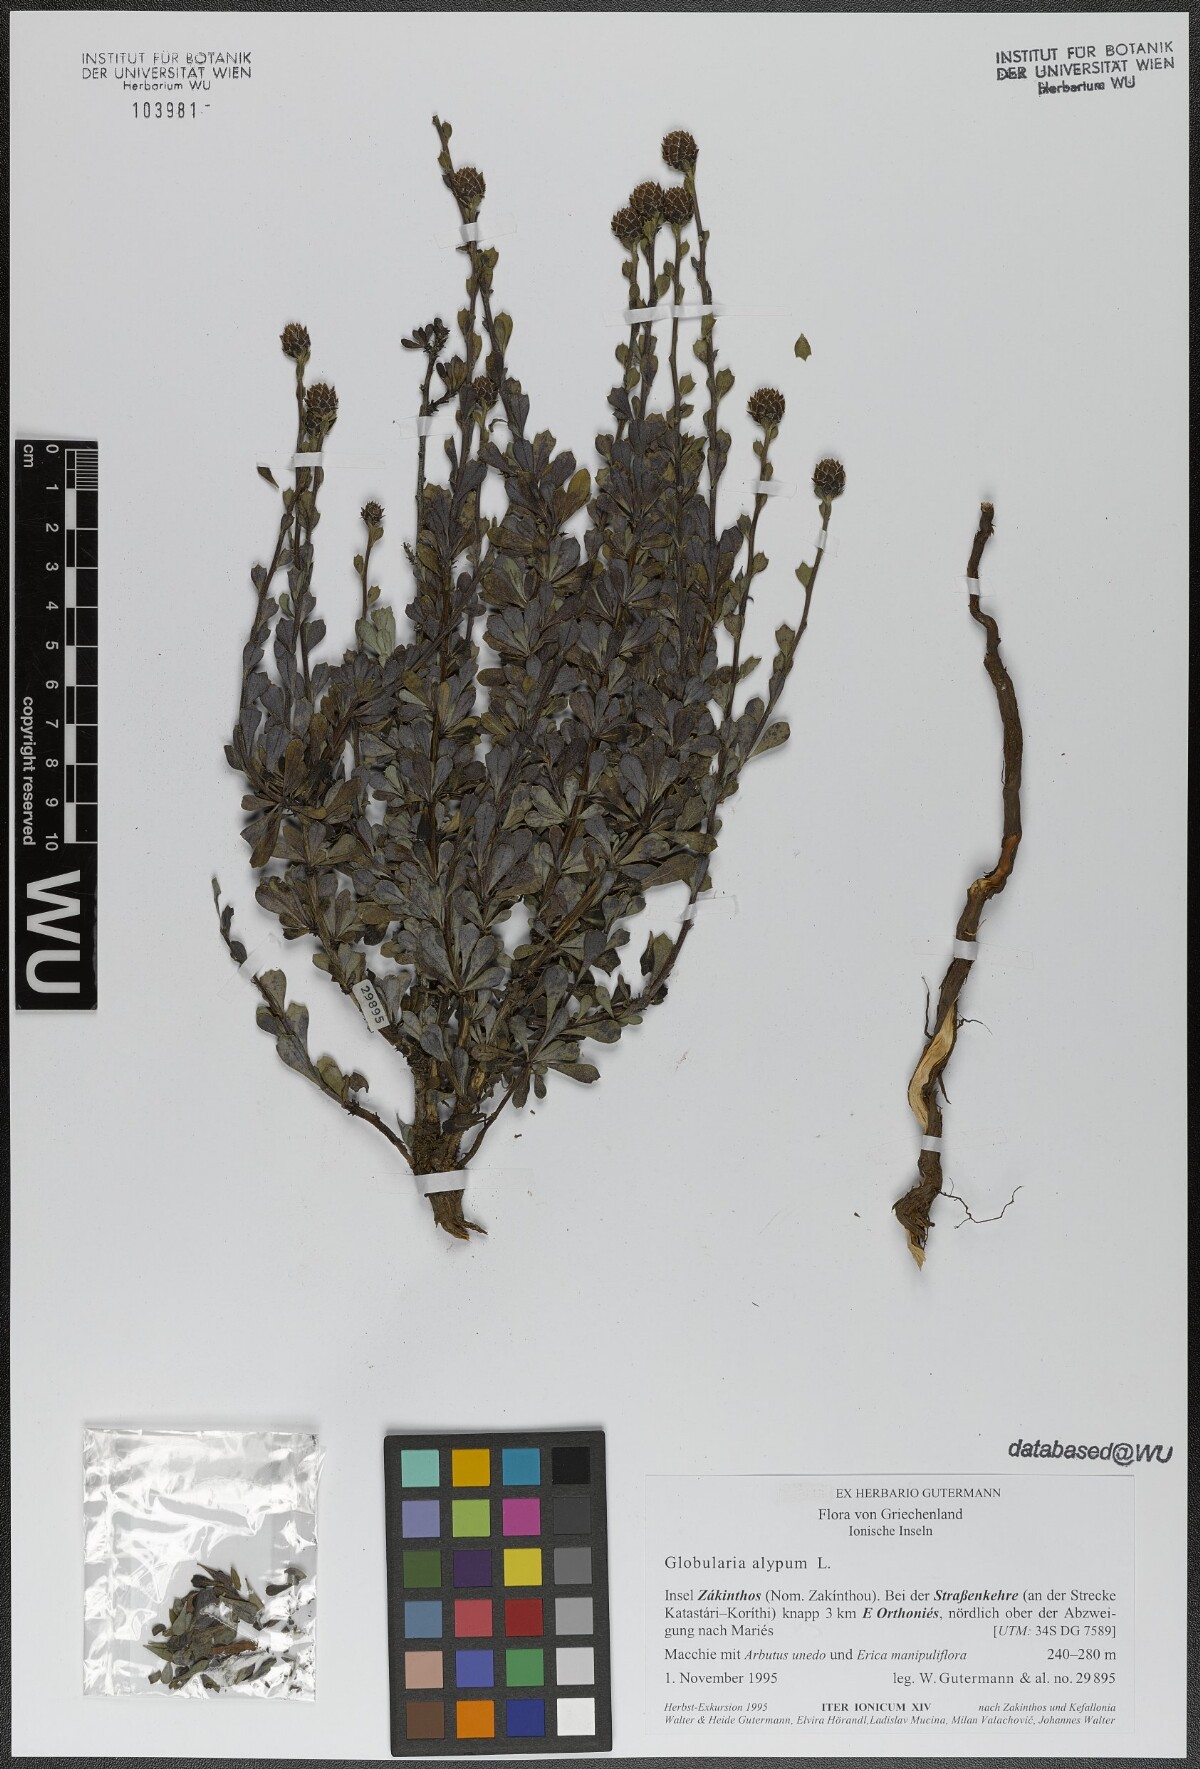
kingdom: Plantae
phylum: Tracheophyta
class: Magnoliopsida
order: Lamiales
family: Plantaginaceae
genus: Globularia
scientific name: Globularia alypum
